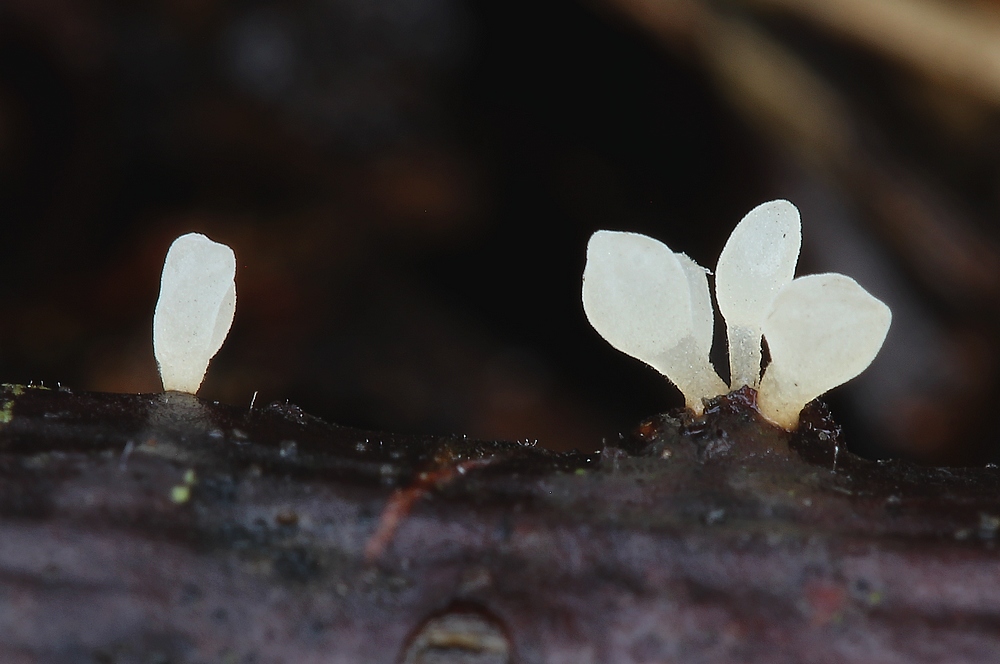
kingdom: Fungi
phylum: Basidiomycota
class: Agaricomycetes
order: Agaricales
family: Typhulaceae
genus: Typhula
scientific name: Typhula spathulata
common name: aske-trådkølle
